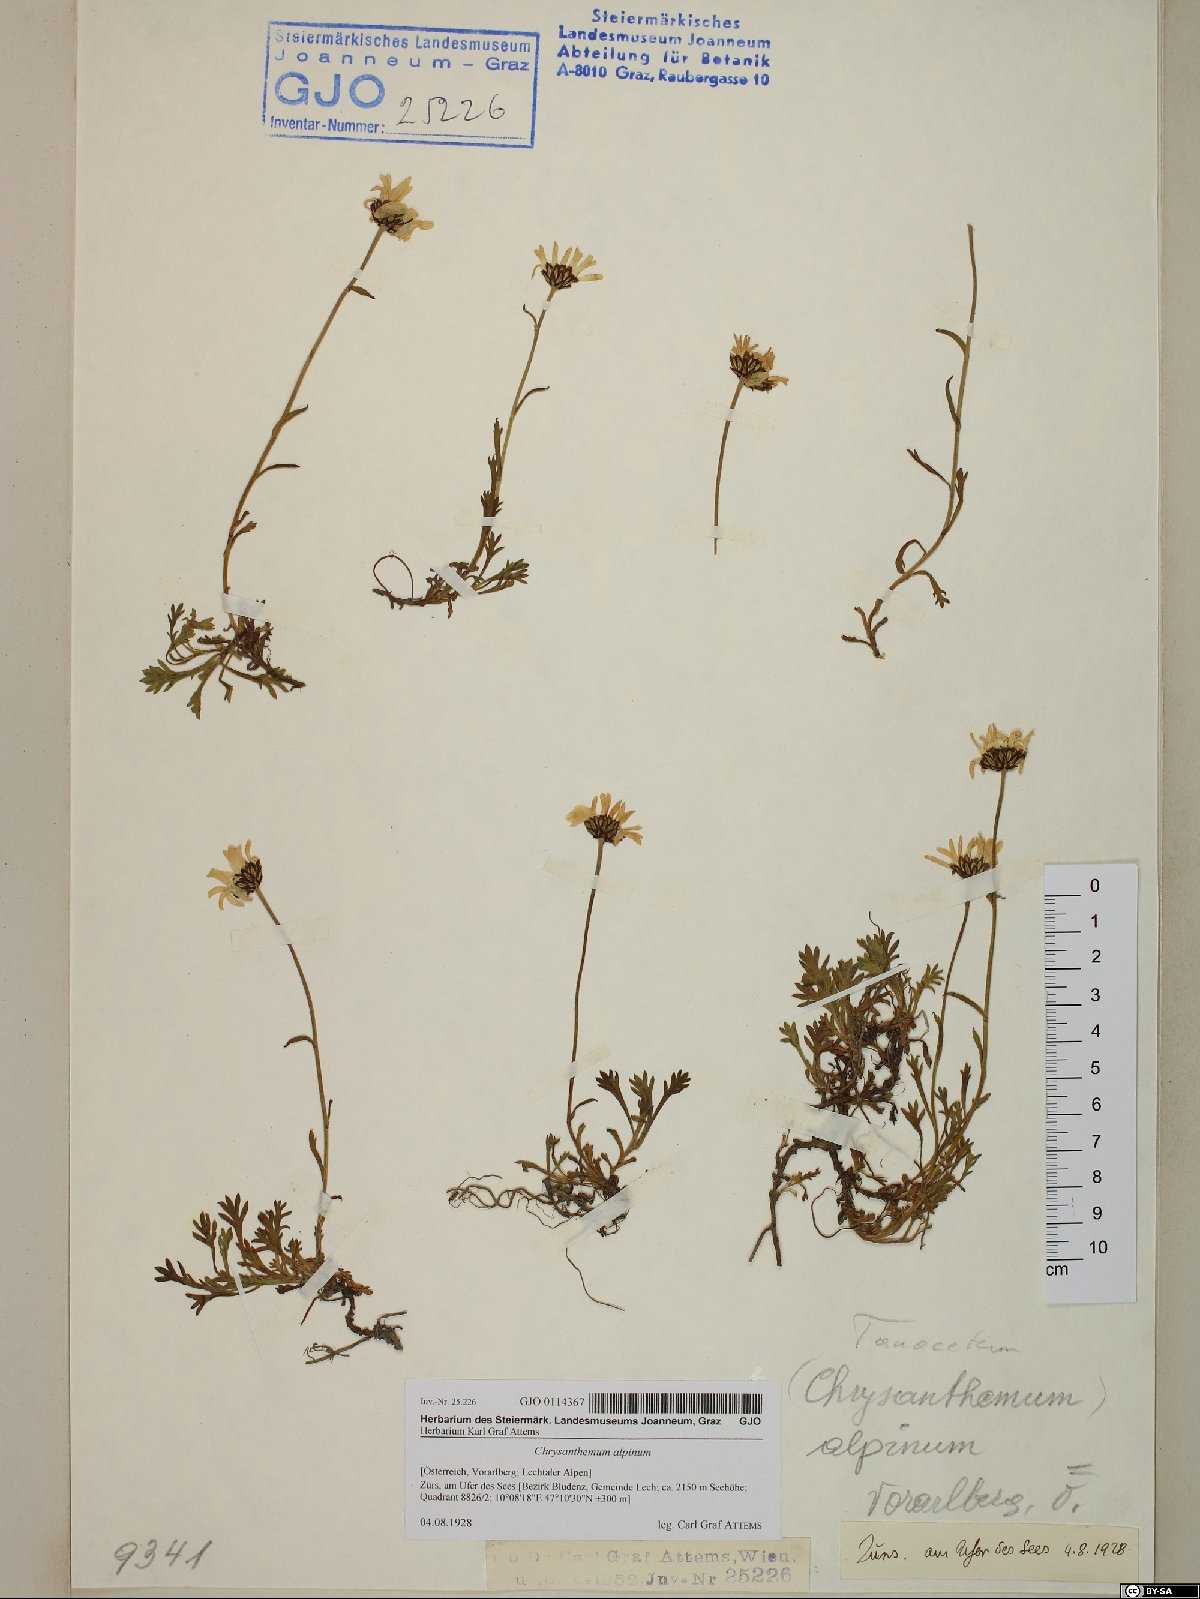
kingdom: Plantae
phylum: Tracheophyta
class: Magnoliopsida
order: Asterales
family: Asteraceae
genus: Leucanthemopsis
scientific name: Leucanthemopsis alpina
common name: Alpine moon daisy
